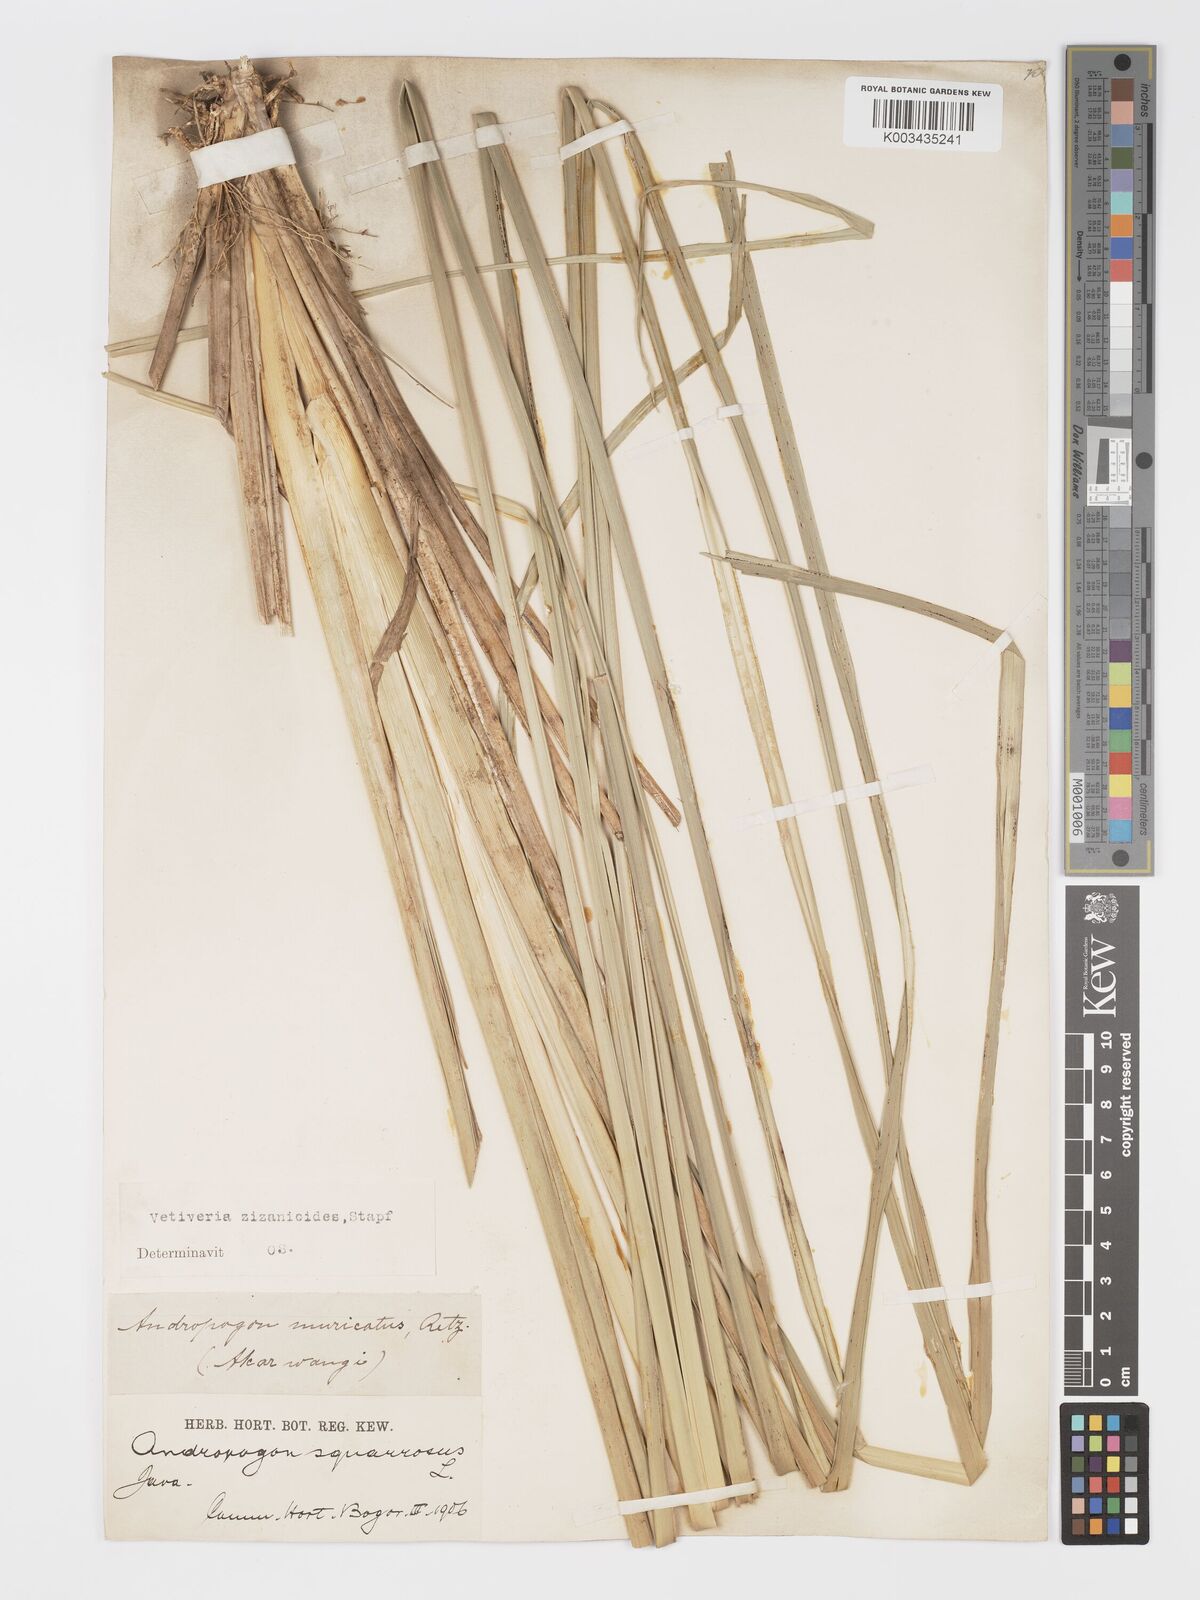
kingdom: Plantae
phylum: Tracheophyta
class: Liliopsida
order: Poales
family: Poaceae
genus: Chrysopogon
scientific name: Chrysopogon zizanioides
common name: False beardgrass
